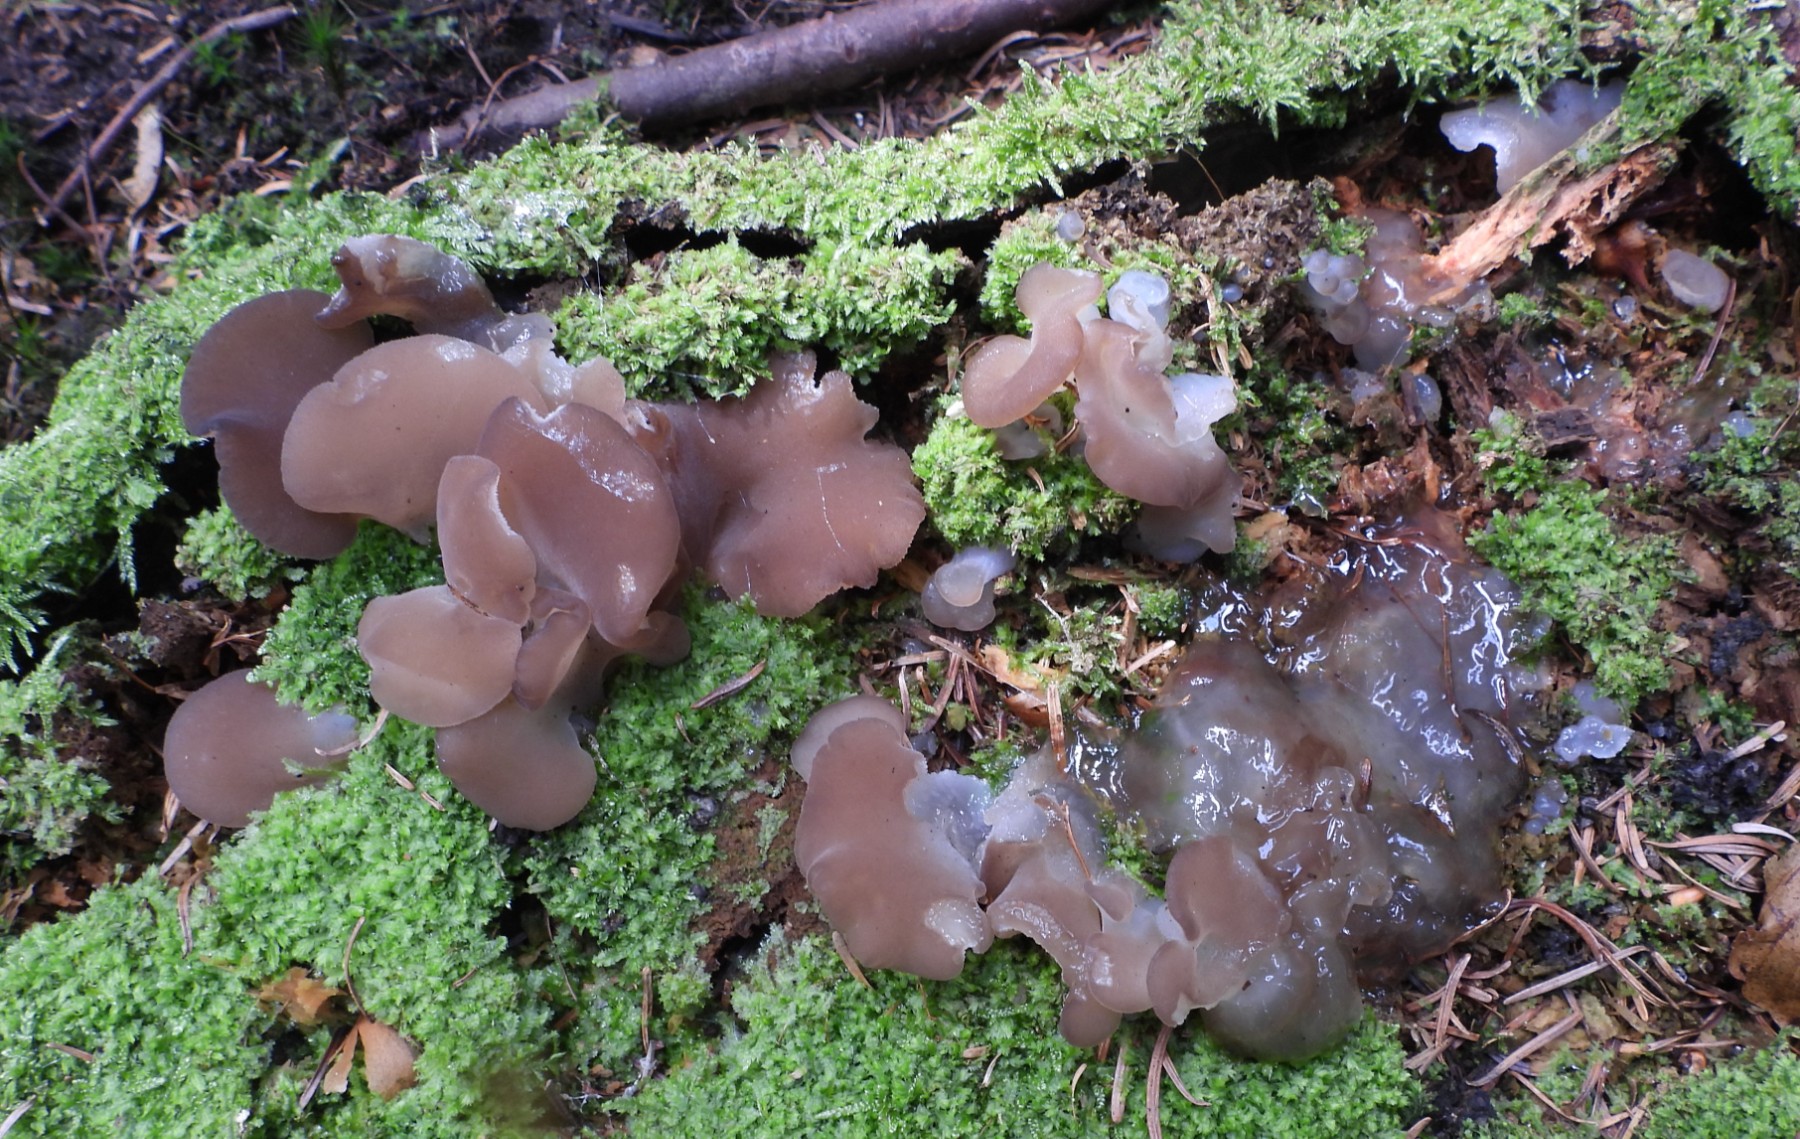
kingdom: Fungi
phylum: Basidiomycota
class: Agaricomycetes
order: Auriculariales
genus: Pseudohydnum
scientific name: Pseudohydnum gelatinosum
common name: bævretand
